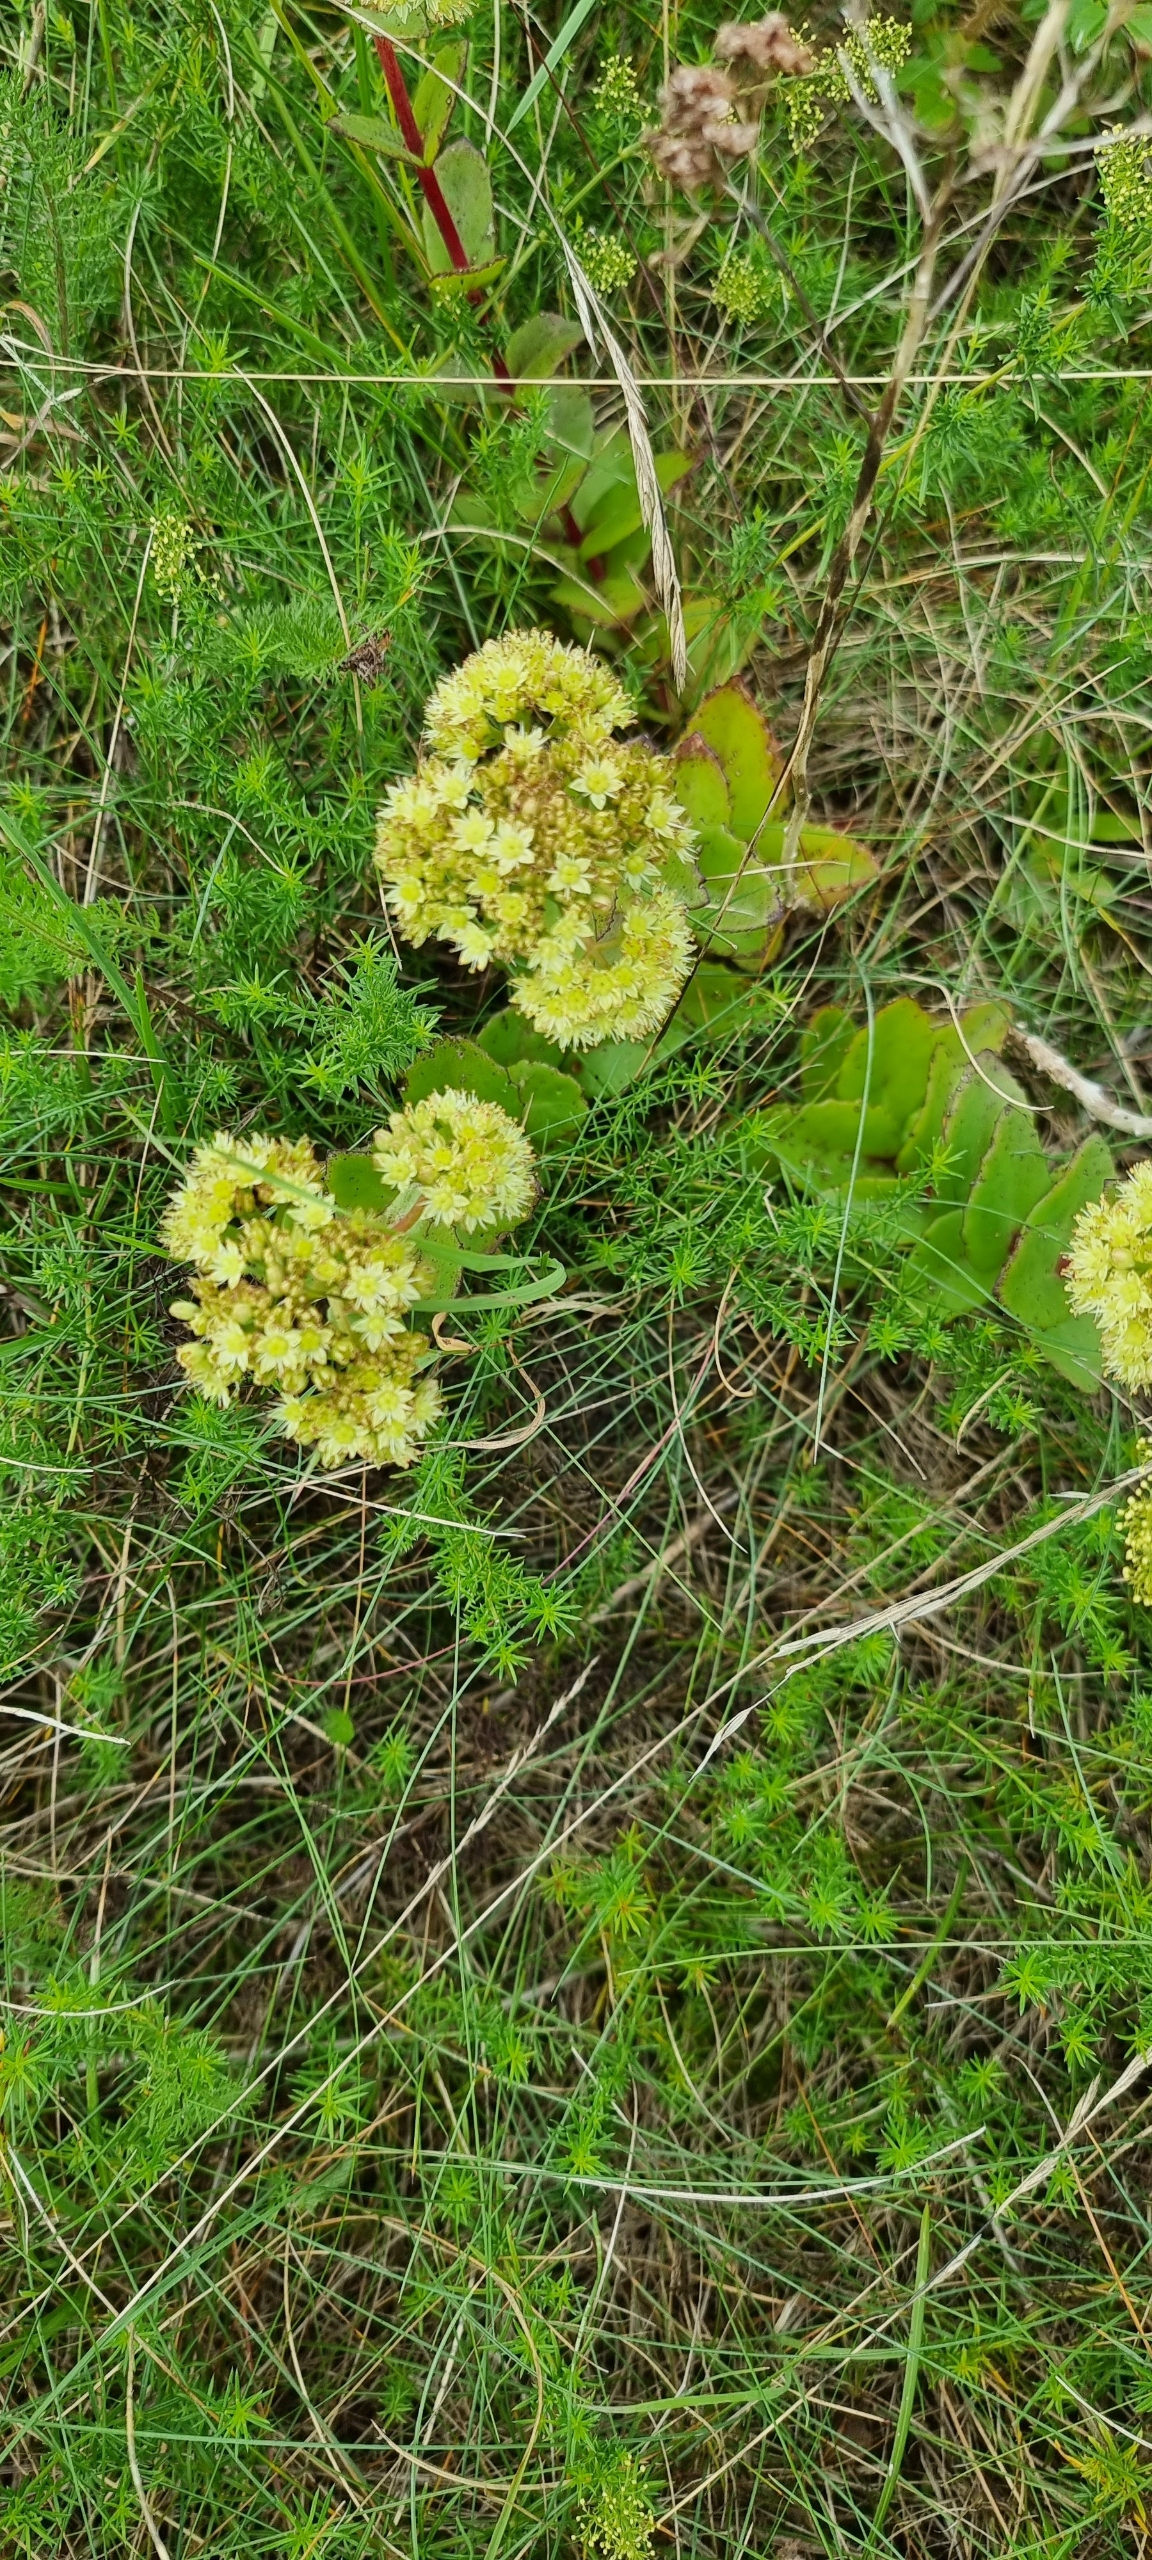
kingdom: Plantae
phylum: Tracheophyta
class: Magnoliopsida
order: Saxifragales
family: Crassulaceae
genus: Hylotelephium
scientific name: Hylotelephium telephium
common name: Sankthansurt
